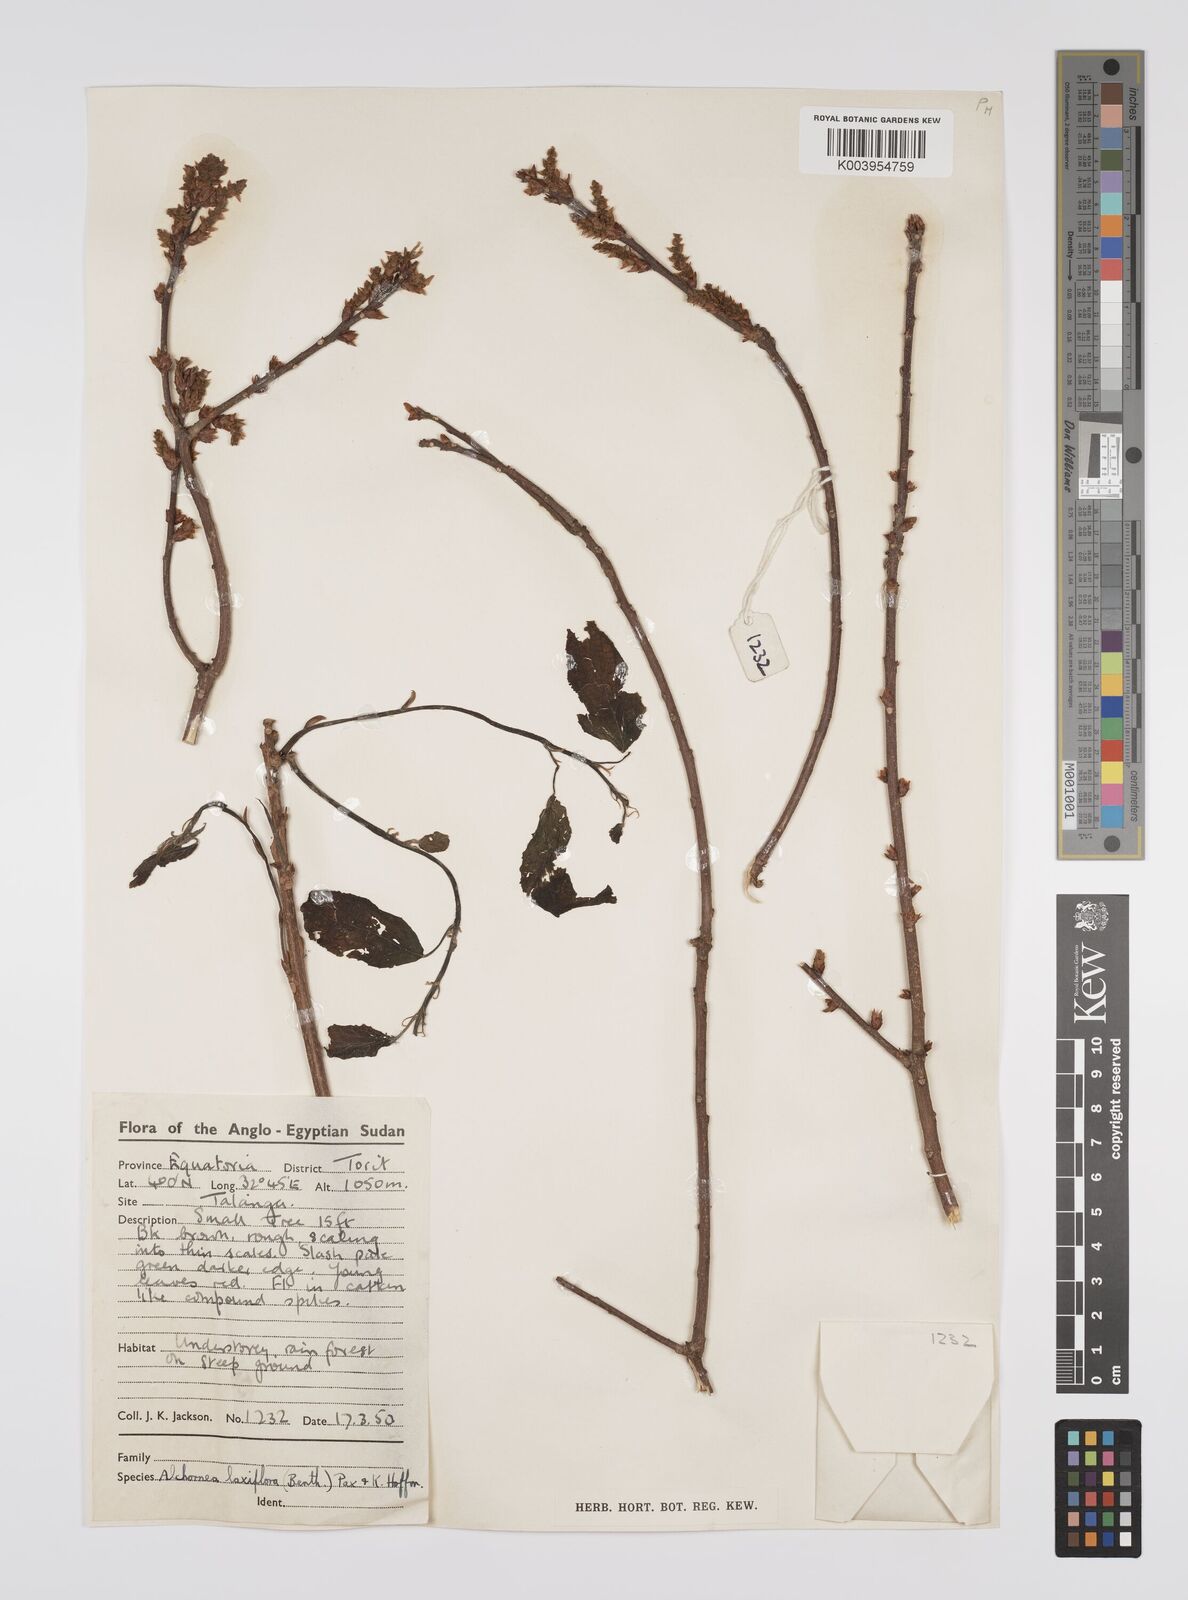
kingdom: Plantae
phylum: Tracheophyta
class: Magnoliopsida
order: Malpighiales
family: Euphorbiaceae
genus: Alchornea
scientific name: Alchornea laxiflora
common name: Lowveld bead-string
